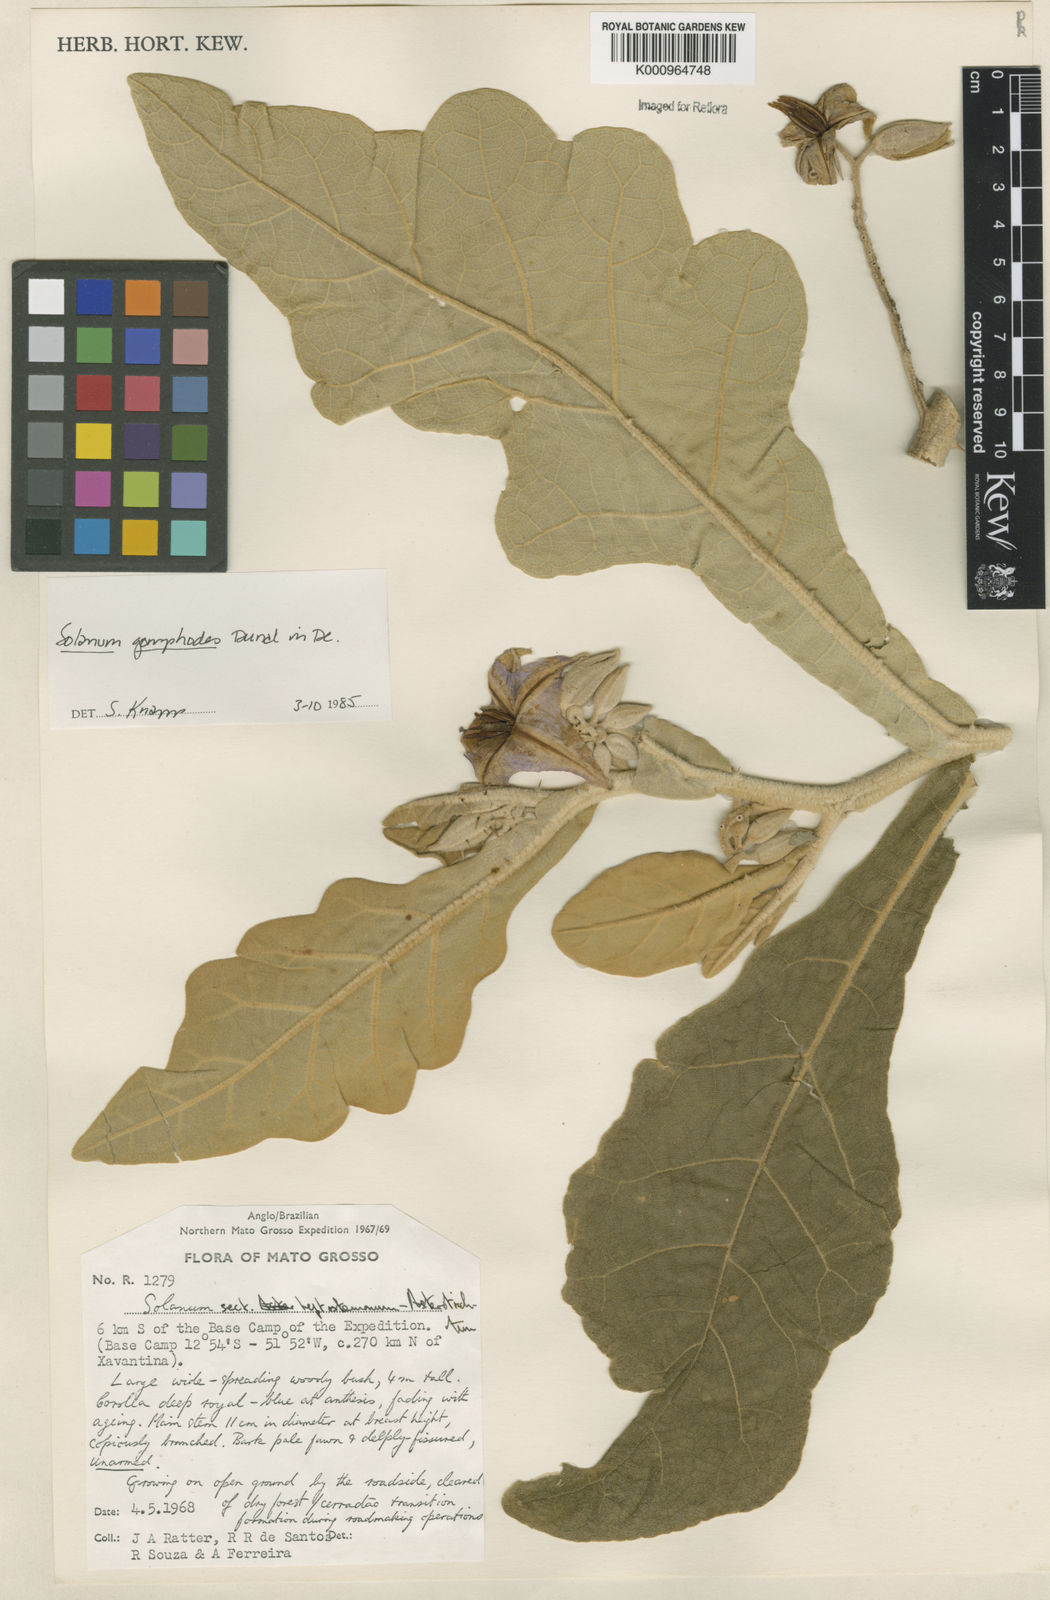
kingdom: Plantae
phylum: Tracheophyta
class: Magnoliopsida
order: Solanales
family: Solanaceae
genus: Solanum
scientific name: Solanum gomphodes
